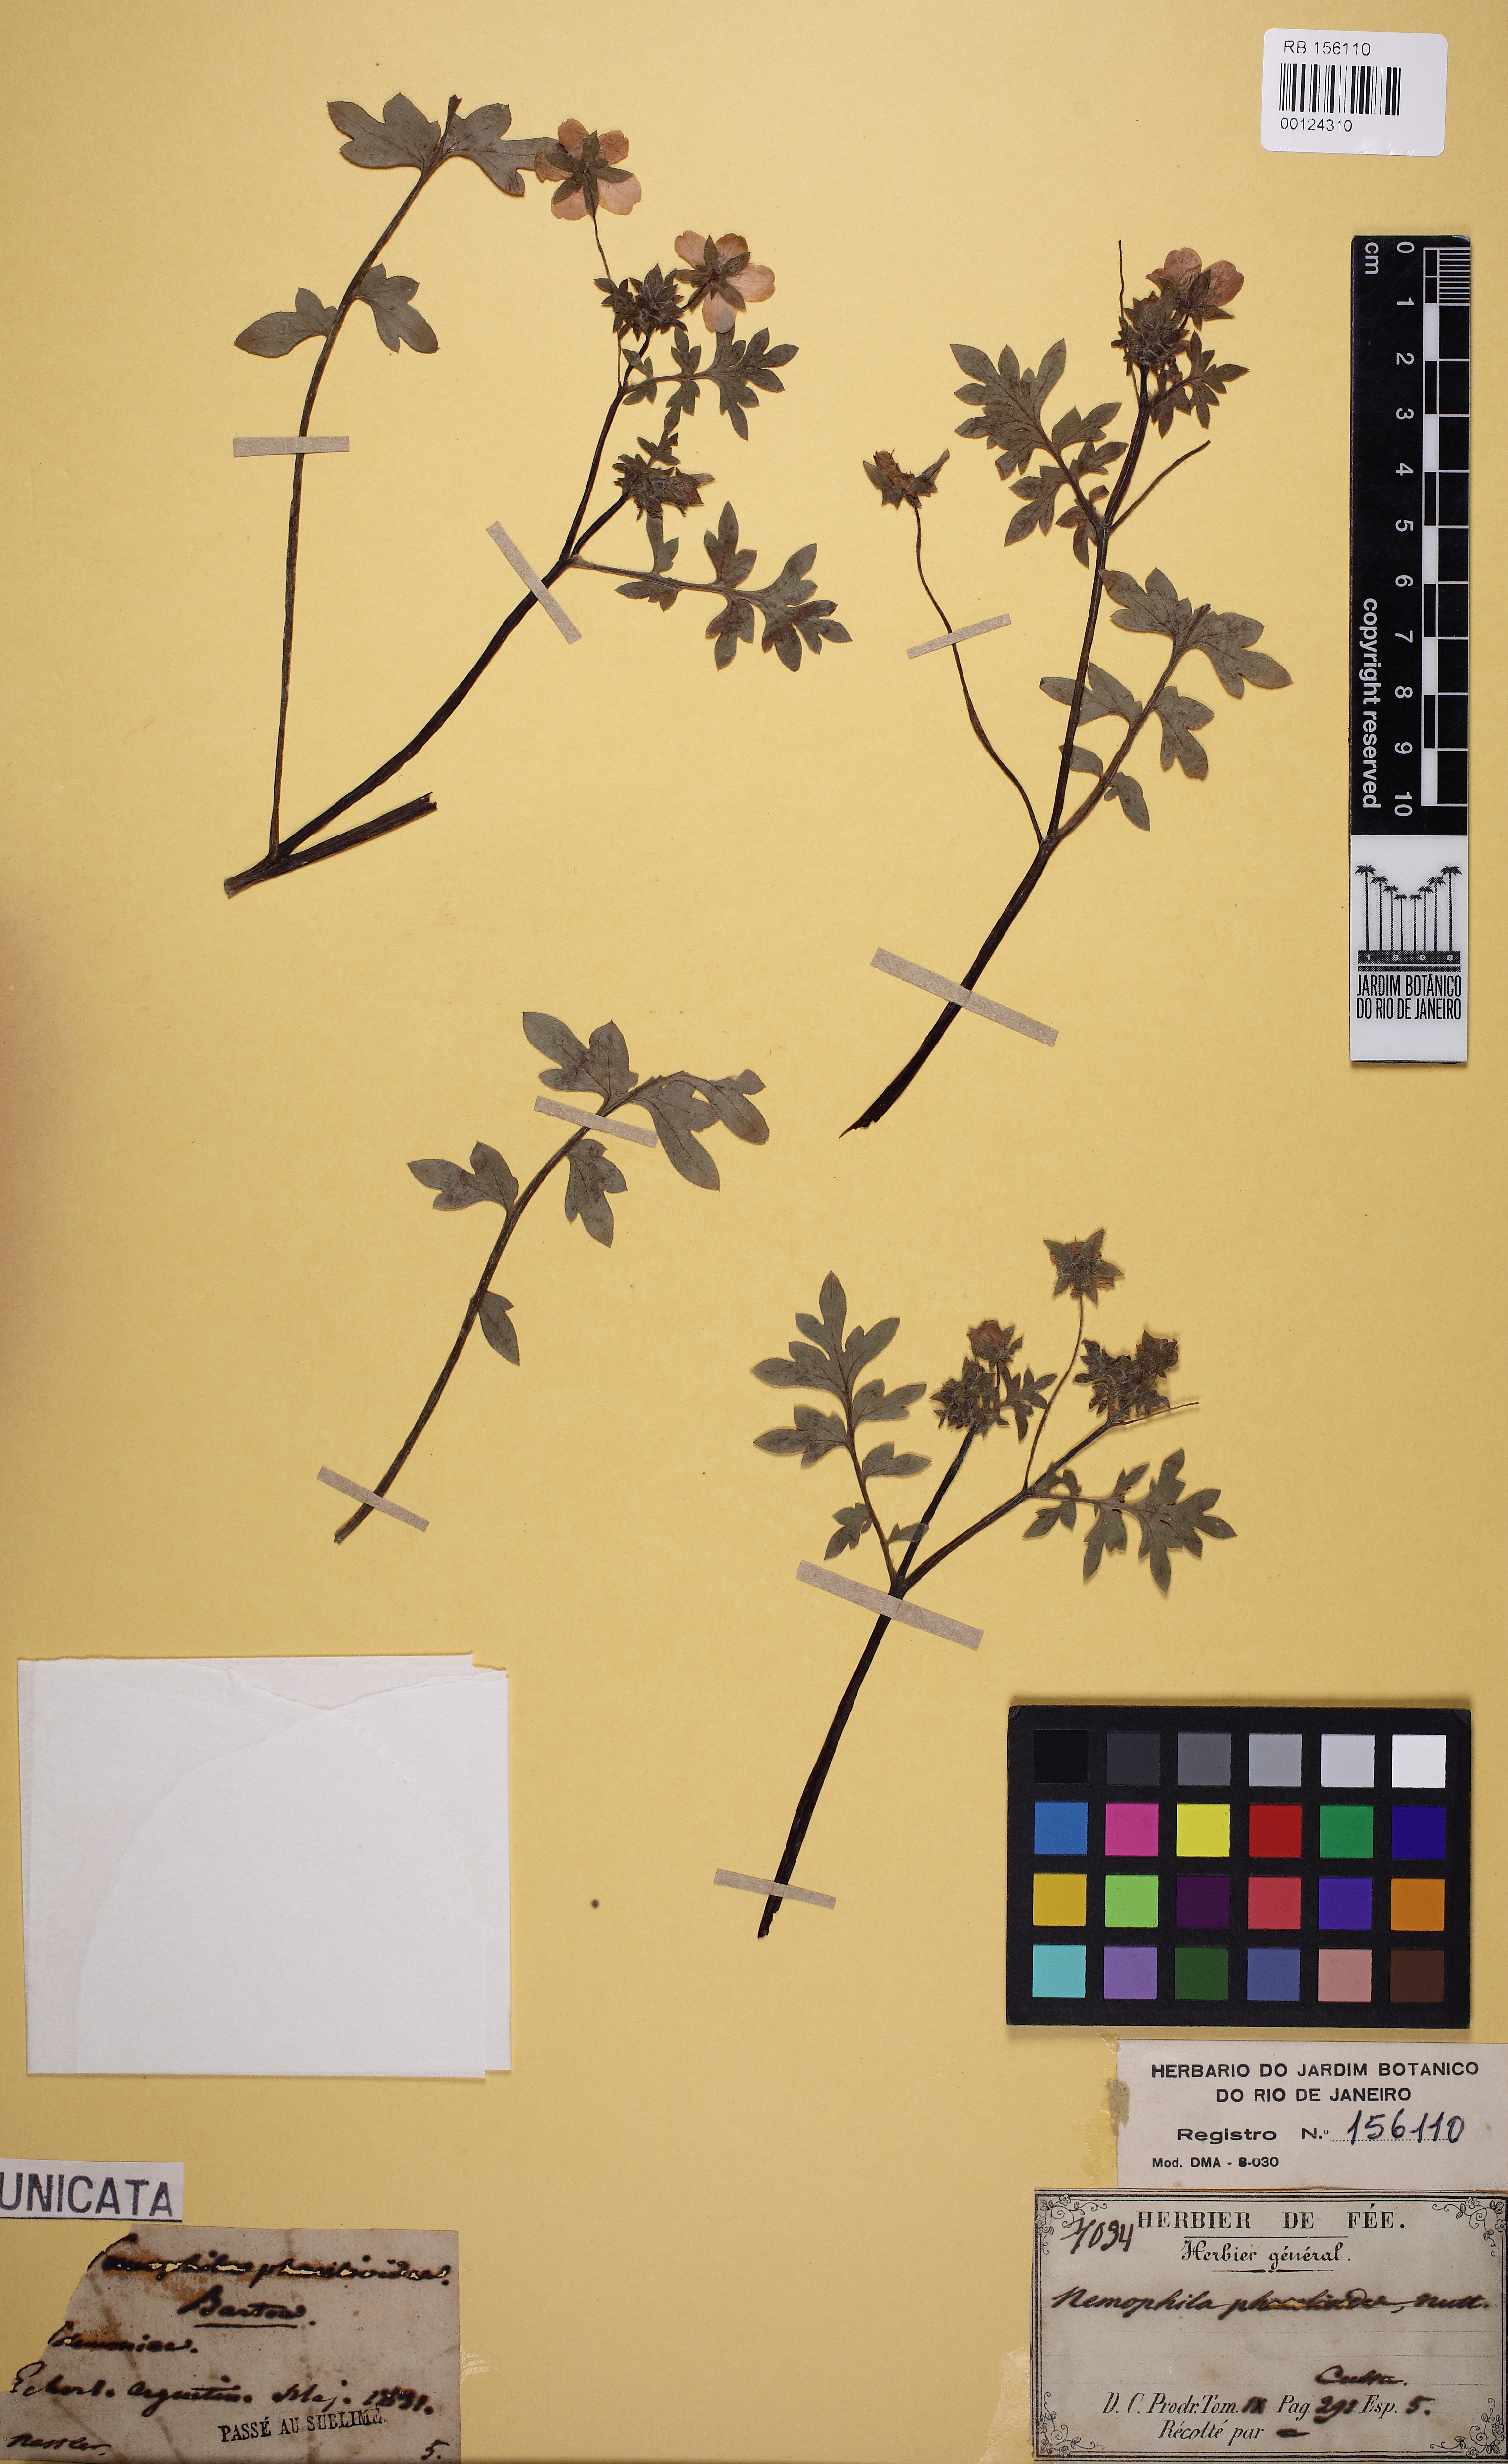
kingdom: Plantae
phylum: Tracheophyta
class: Magnoliopsida
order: Boraginales
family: Hydrophyllaceae
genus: Nemophila
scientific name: Nemophila phacelioides
